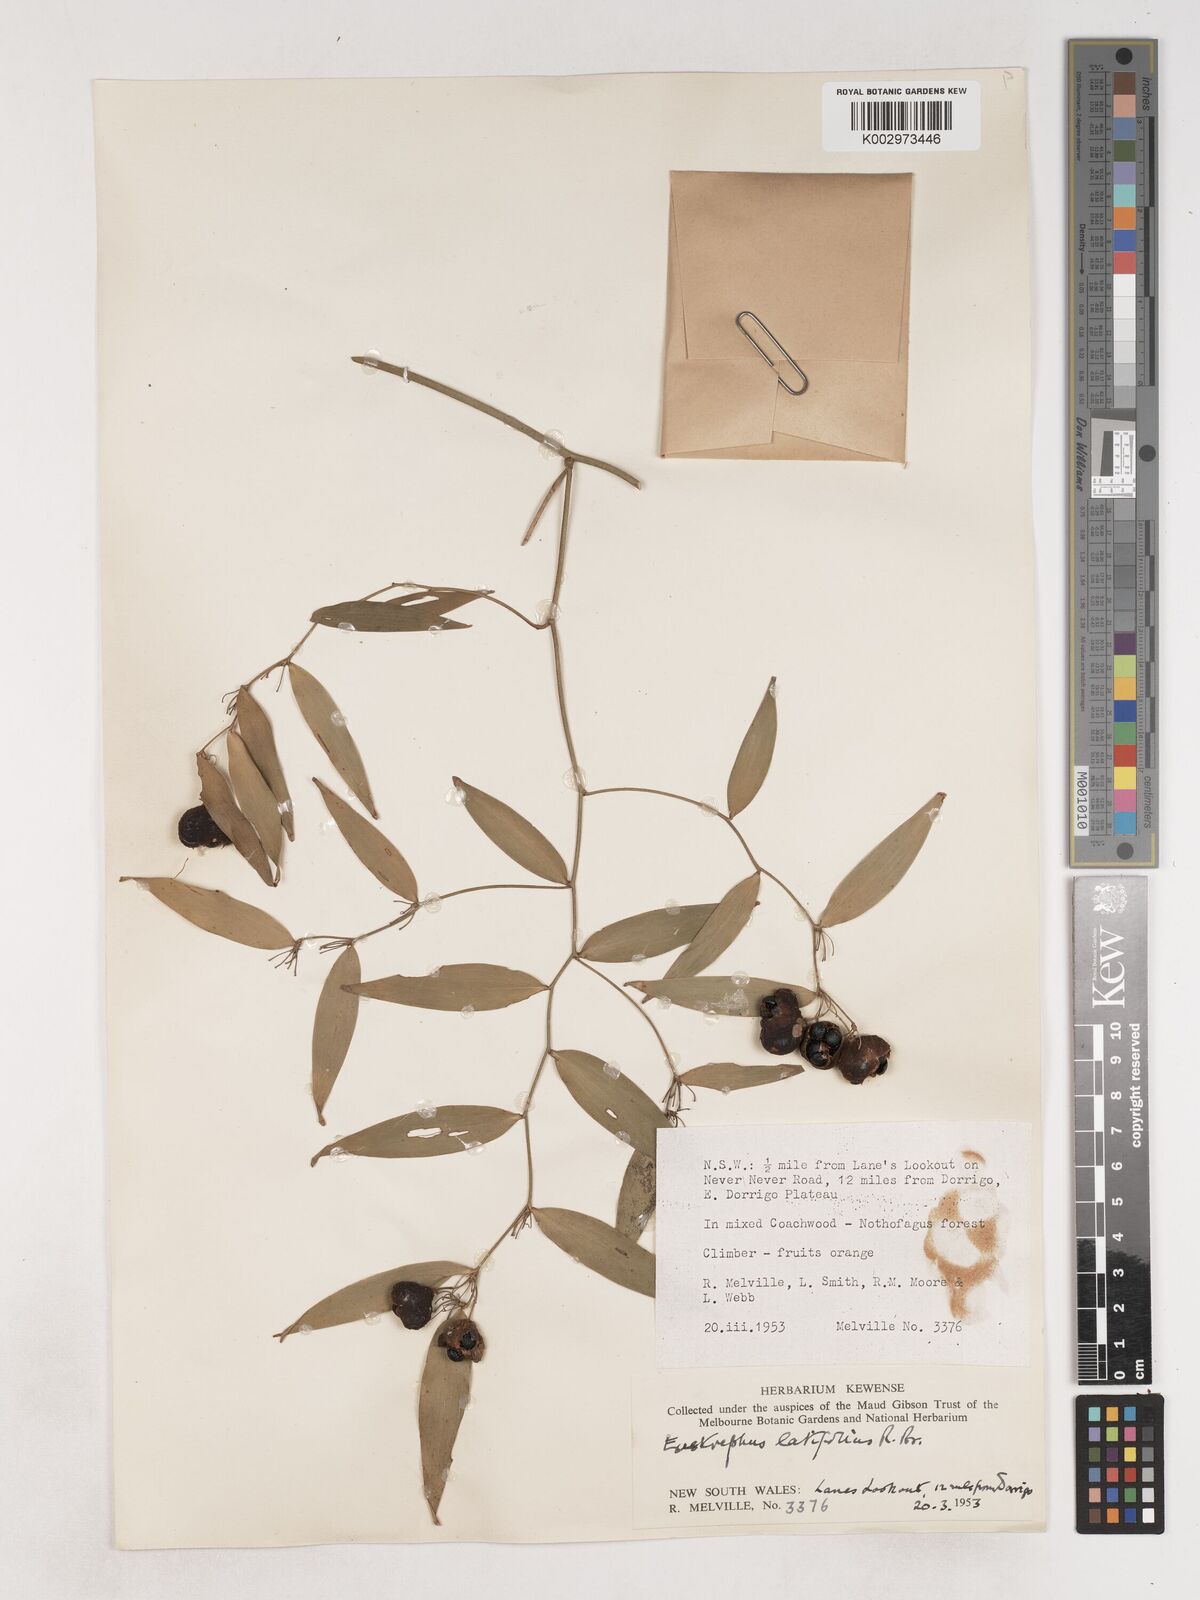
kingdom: Plantae
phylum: Tracheophyta
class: Liliopsida
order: Asparagales
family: Asparagaceae
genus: Eustrephus
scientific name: Eustrephus latifolius
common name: Orangevine
